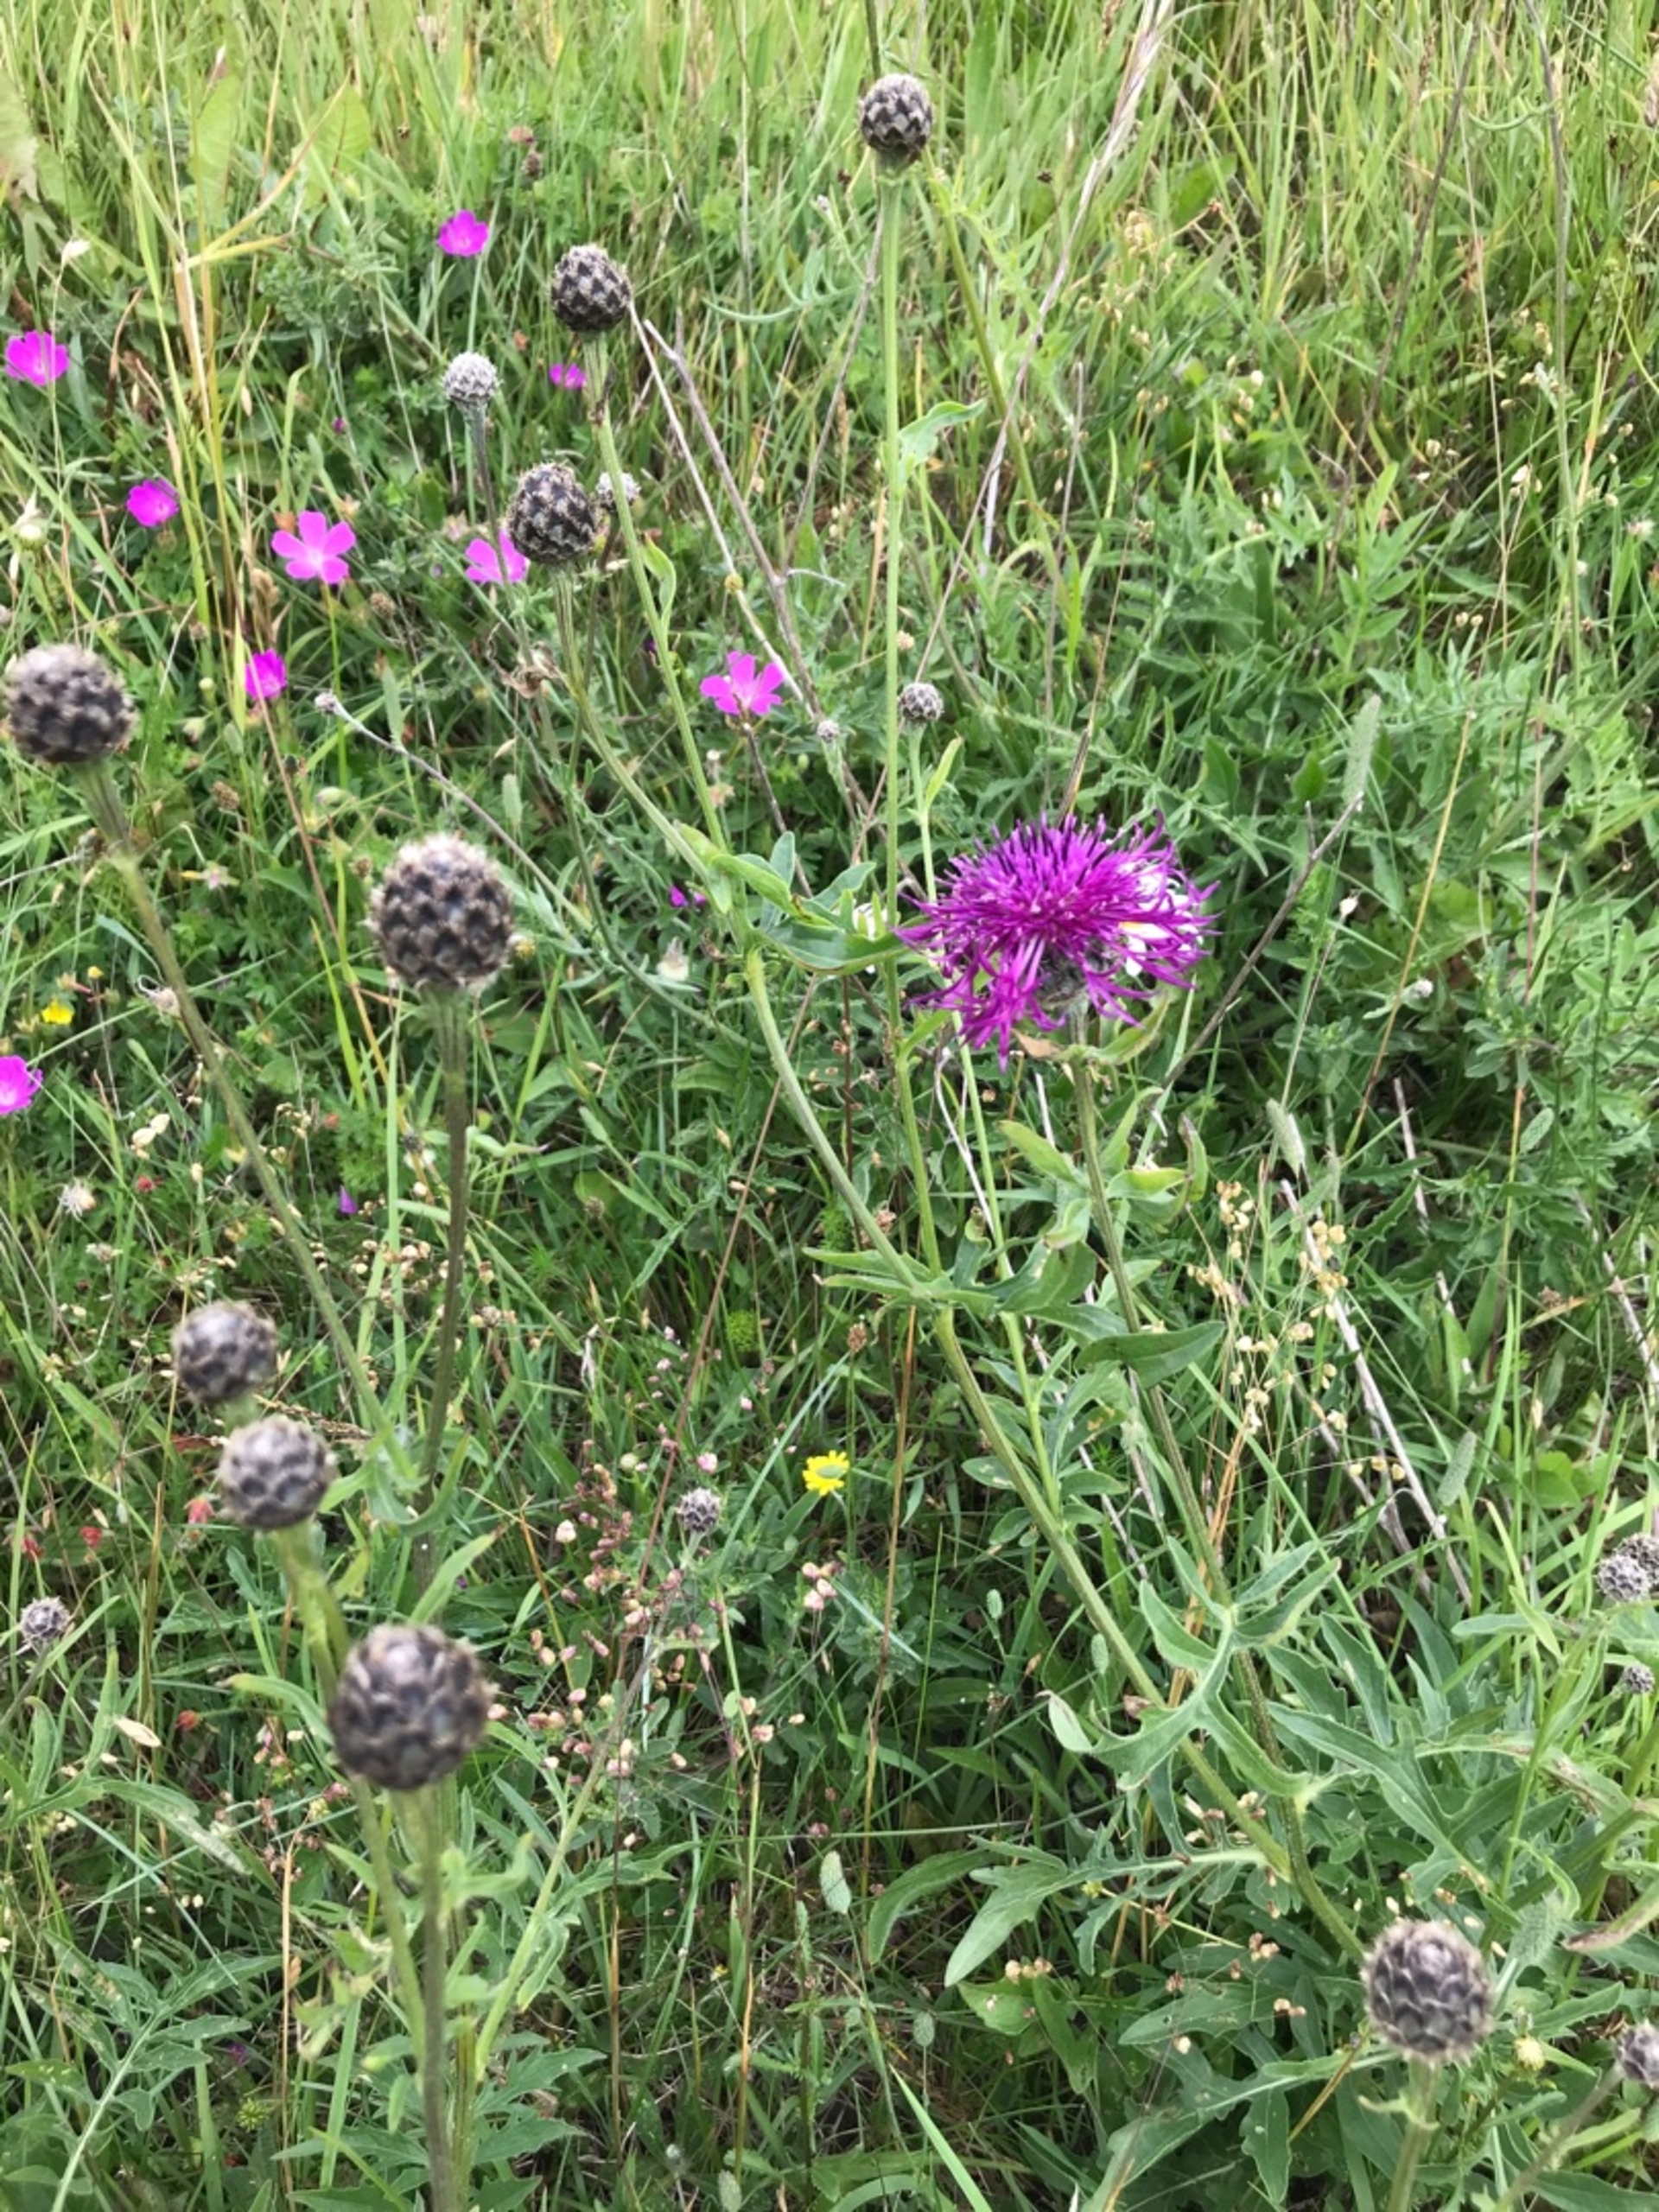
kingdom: Plantae
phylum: Tracheophyta
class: Magnoliopsida
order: Asterales
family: Asteraceae
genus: Centaurea
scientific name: Centaurea scabiosa
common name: Stor knopurt
